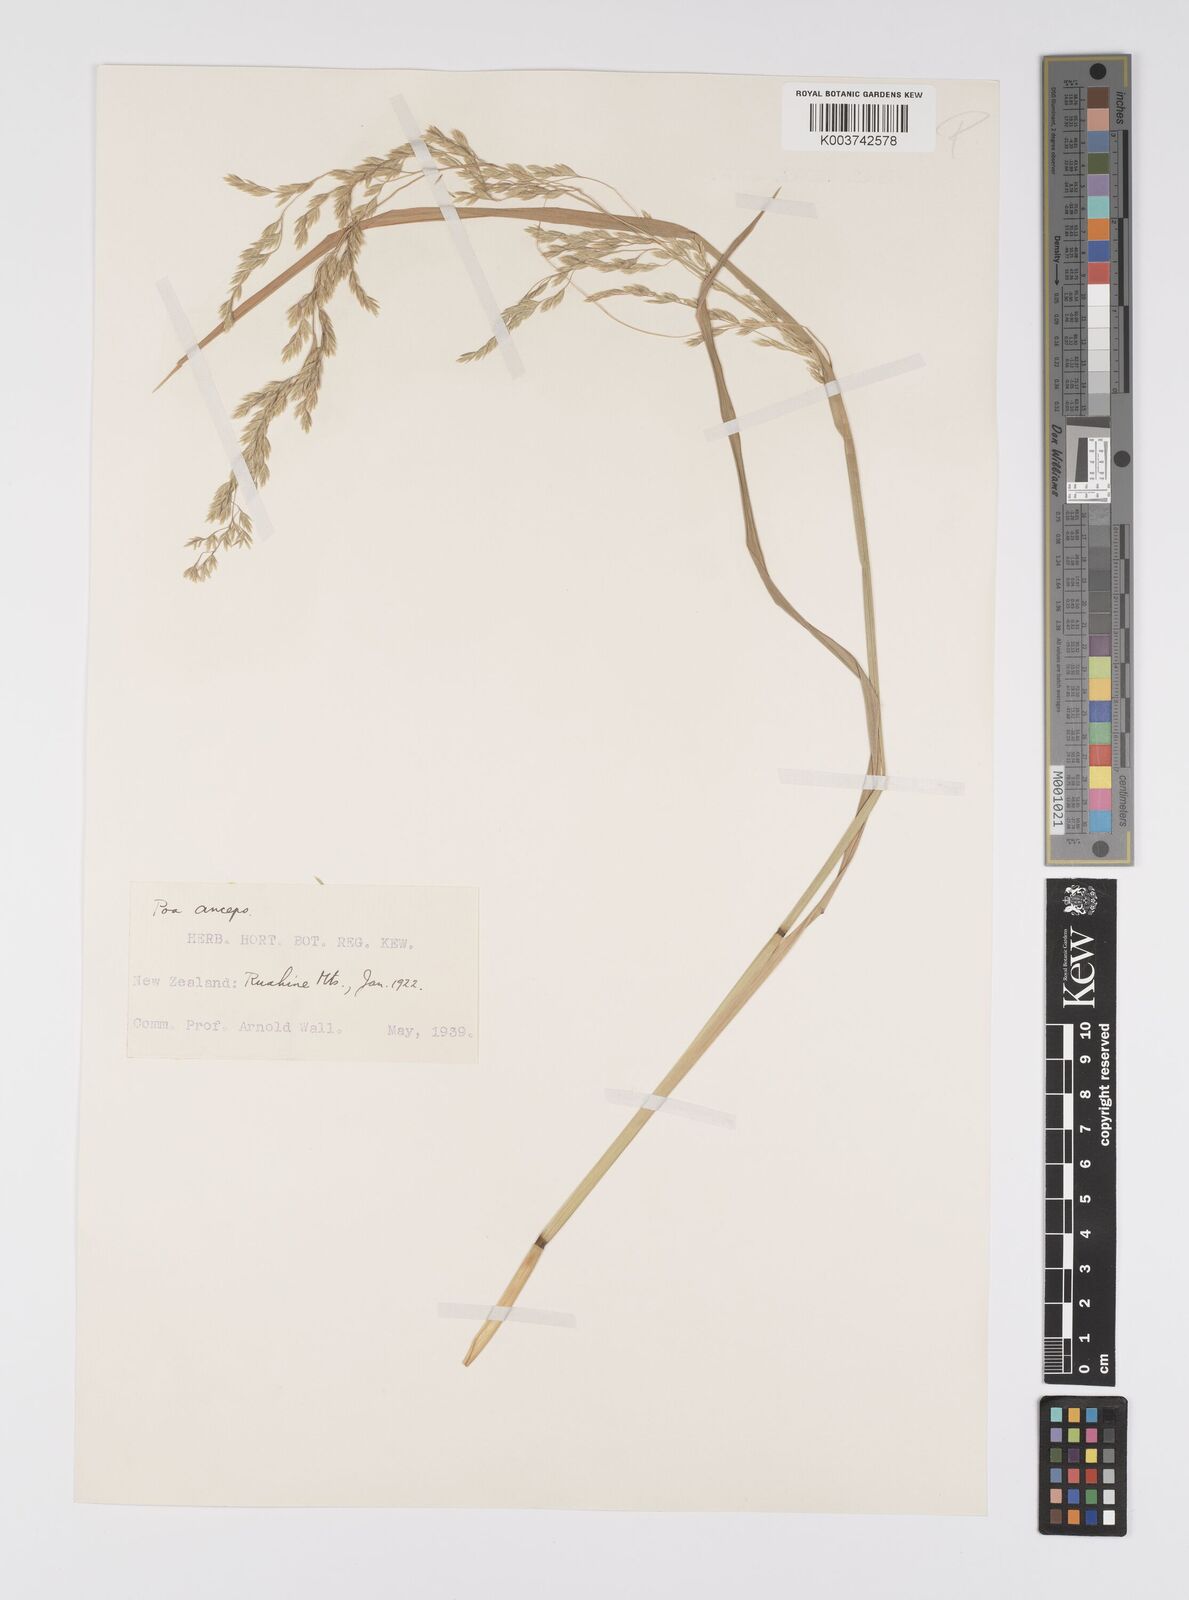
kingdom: Plantae
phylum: Tracheophyta
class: Liliopsida
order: Poales
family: Poaceae
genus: Poa
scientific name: Poa anceps
